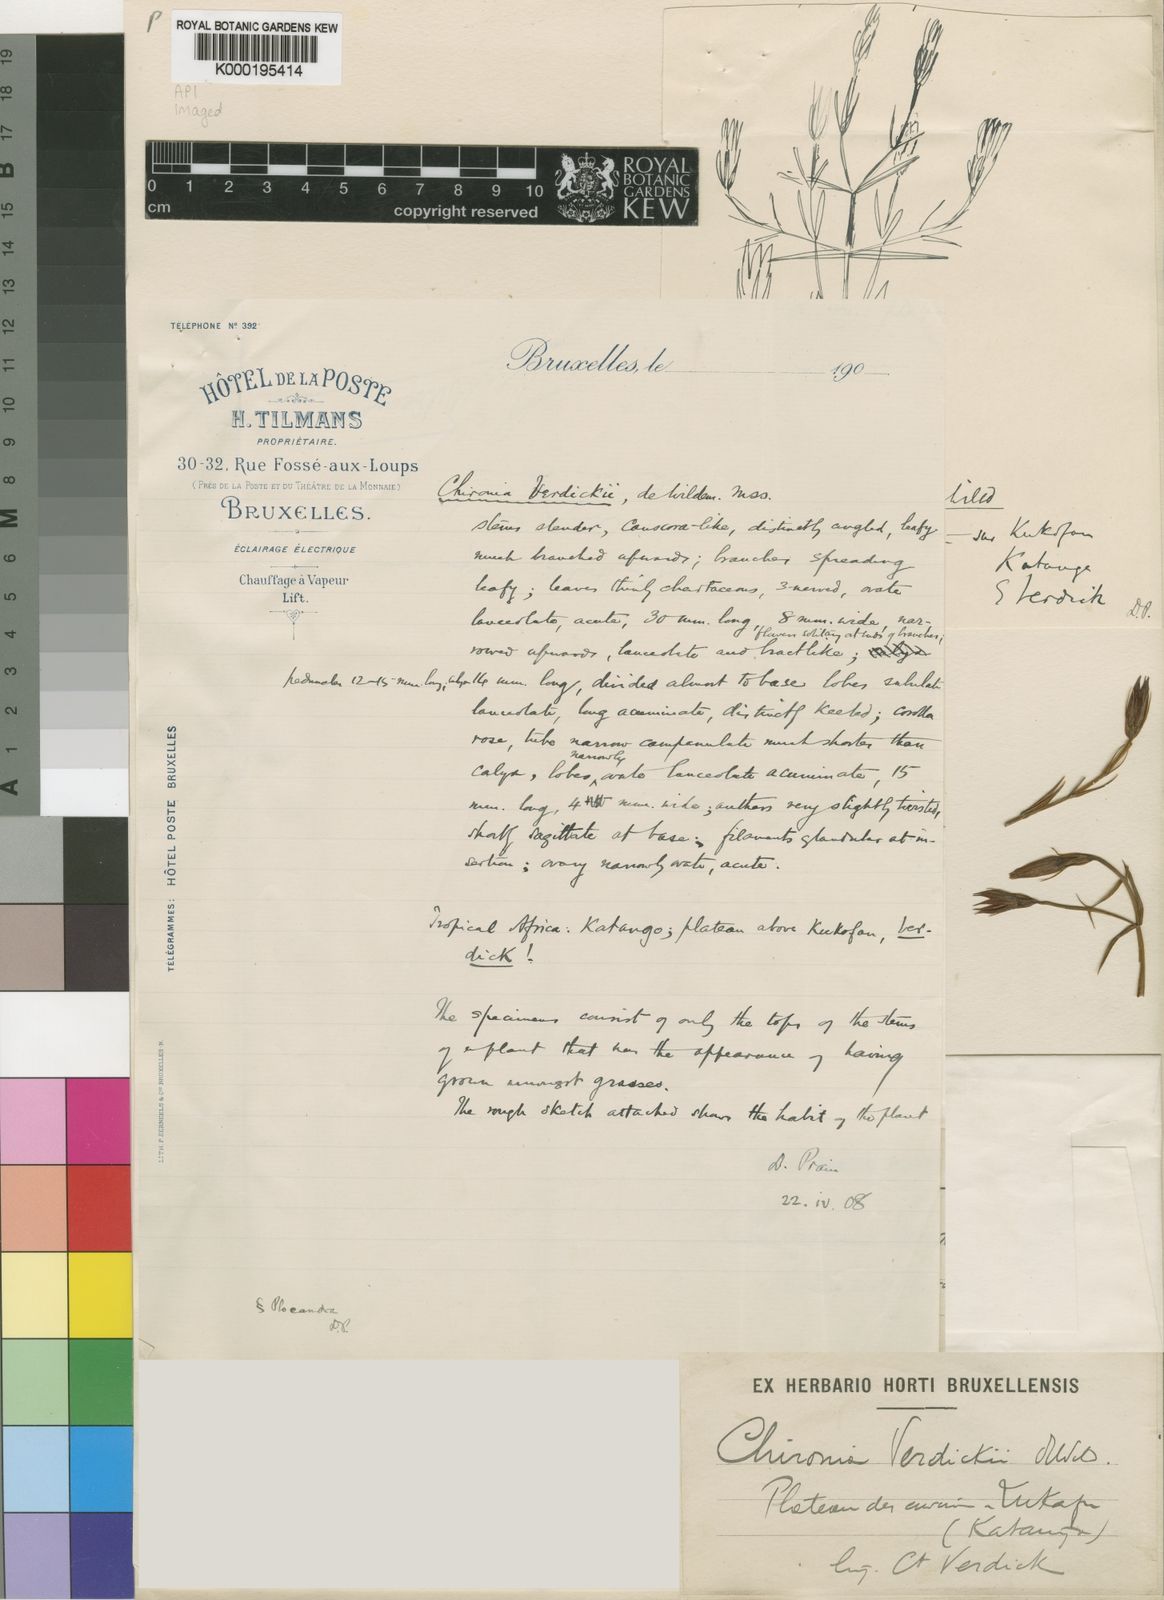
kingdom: Plantae
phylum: Tracheophyta
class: Magnoliopsida
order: Gentianales
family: Gentianaceae
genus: Chironia
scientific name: Chironia katangensis
